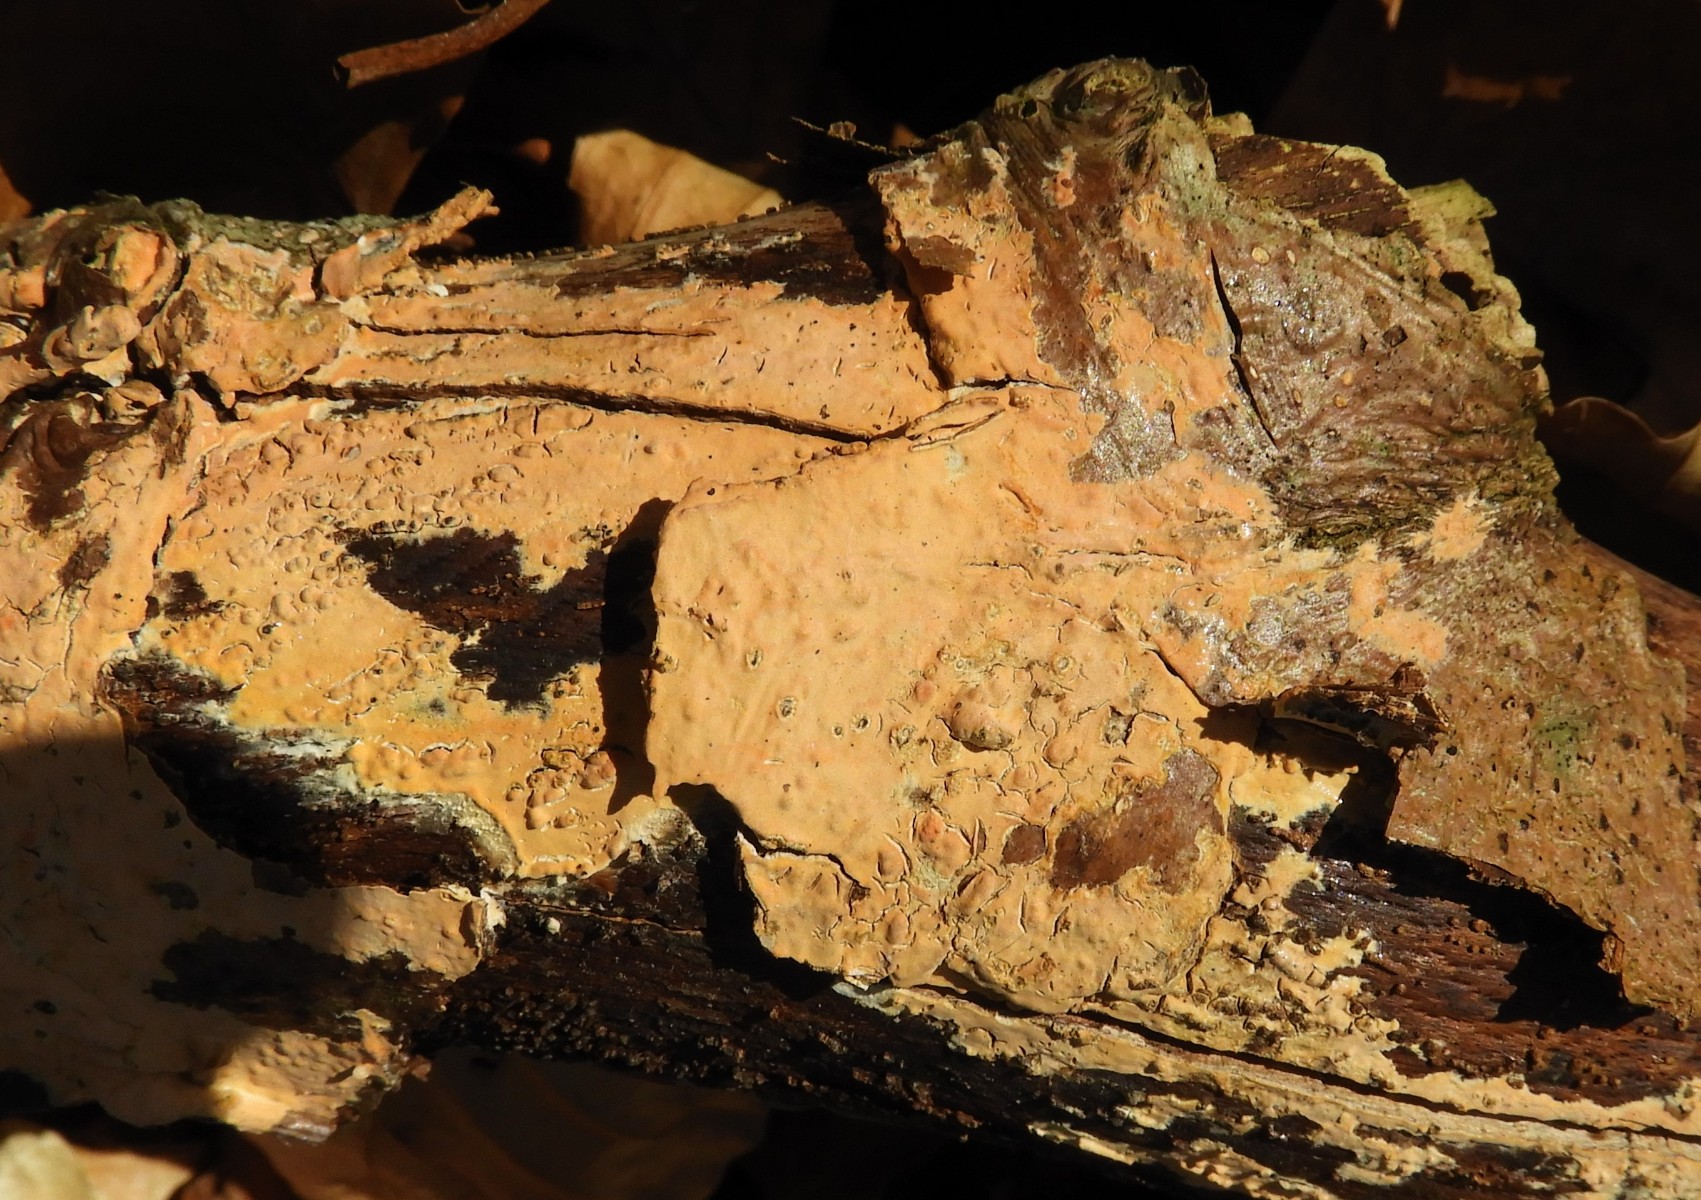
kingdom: Fungi
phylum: Basidiomycota
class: Agaricomycetes
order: Russulales
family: Peniophoraceae
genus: Peniophora
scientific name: Peniophora incarnata
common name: laksefarvet voksskind
